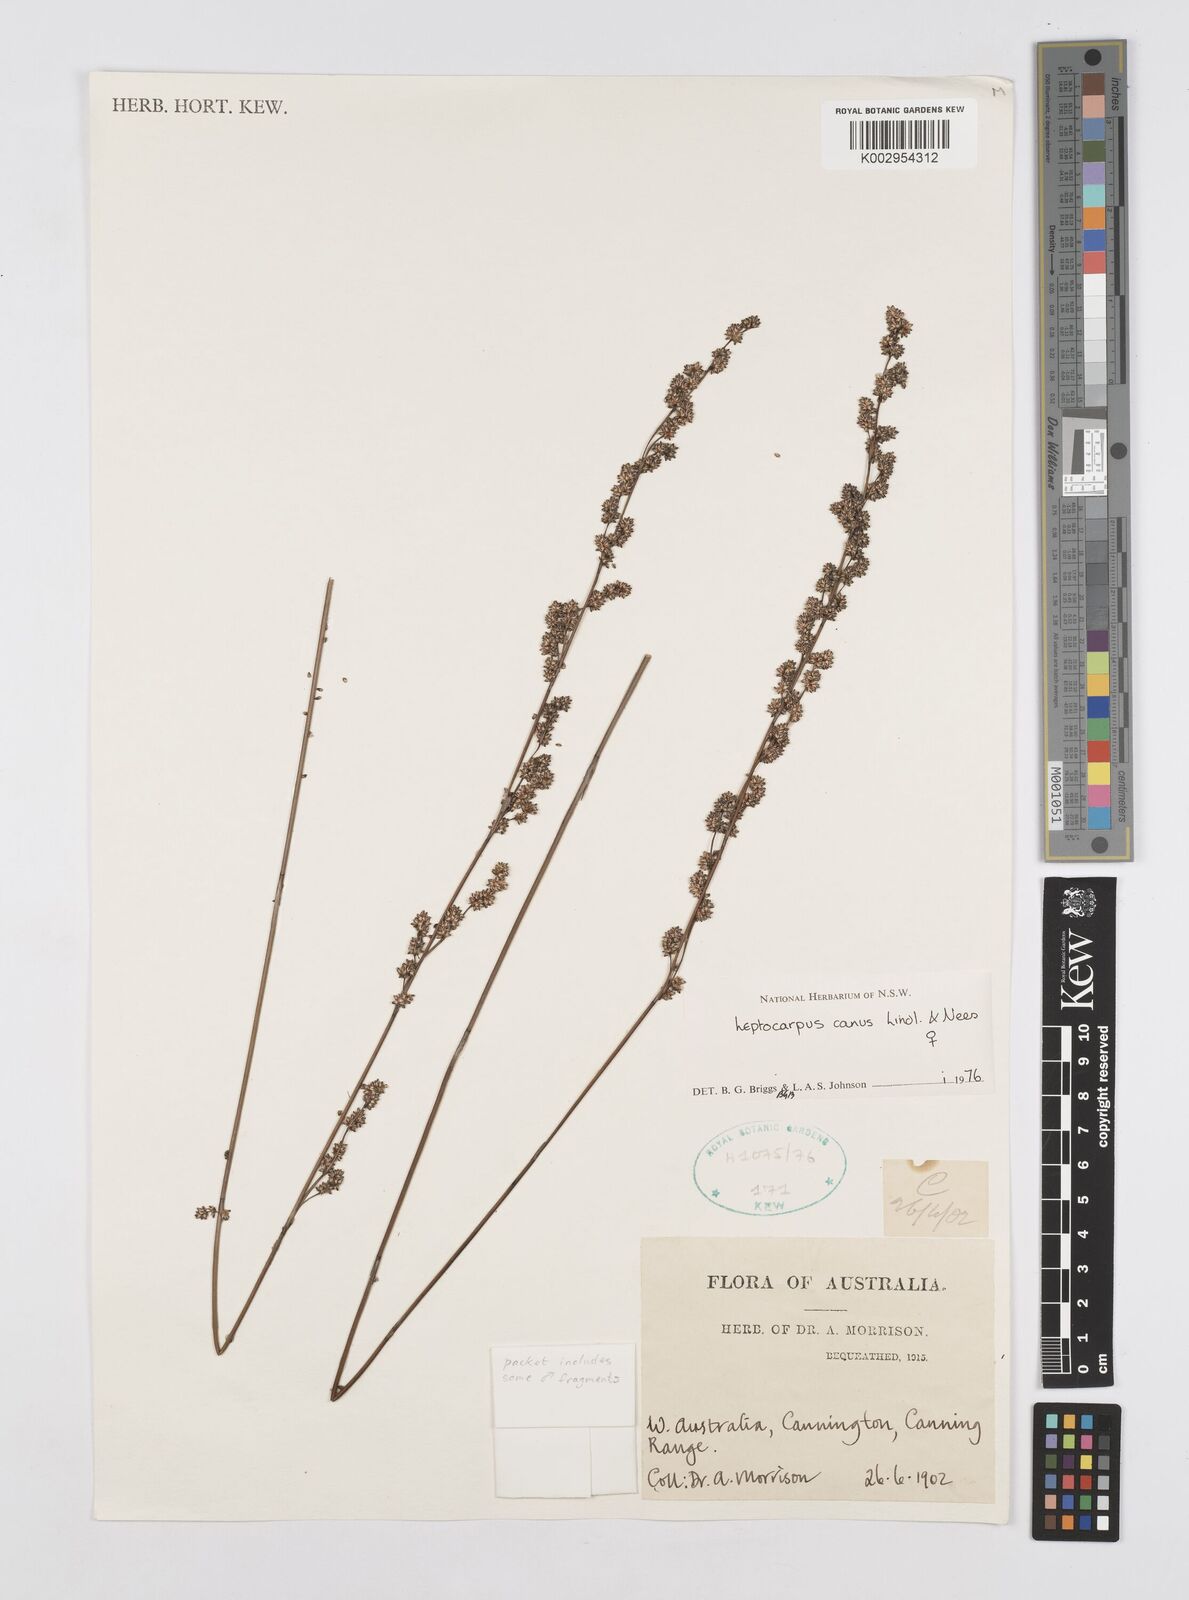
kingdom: Plantae
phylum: Tracheophyta
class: Liliopsida
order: Poales
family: Restionaceae
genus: Leptocarpus
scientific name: Leptocarpus canus
